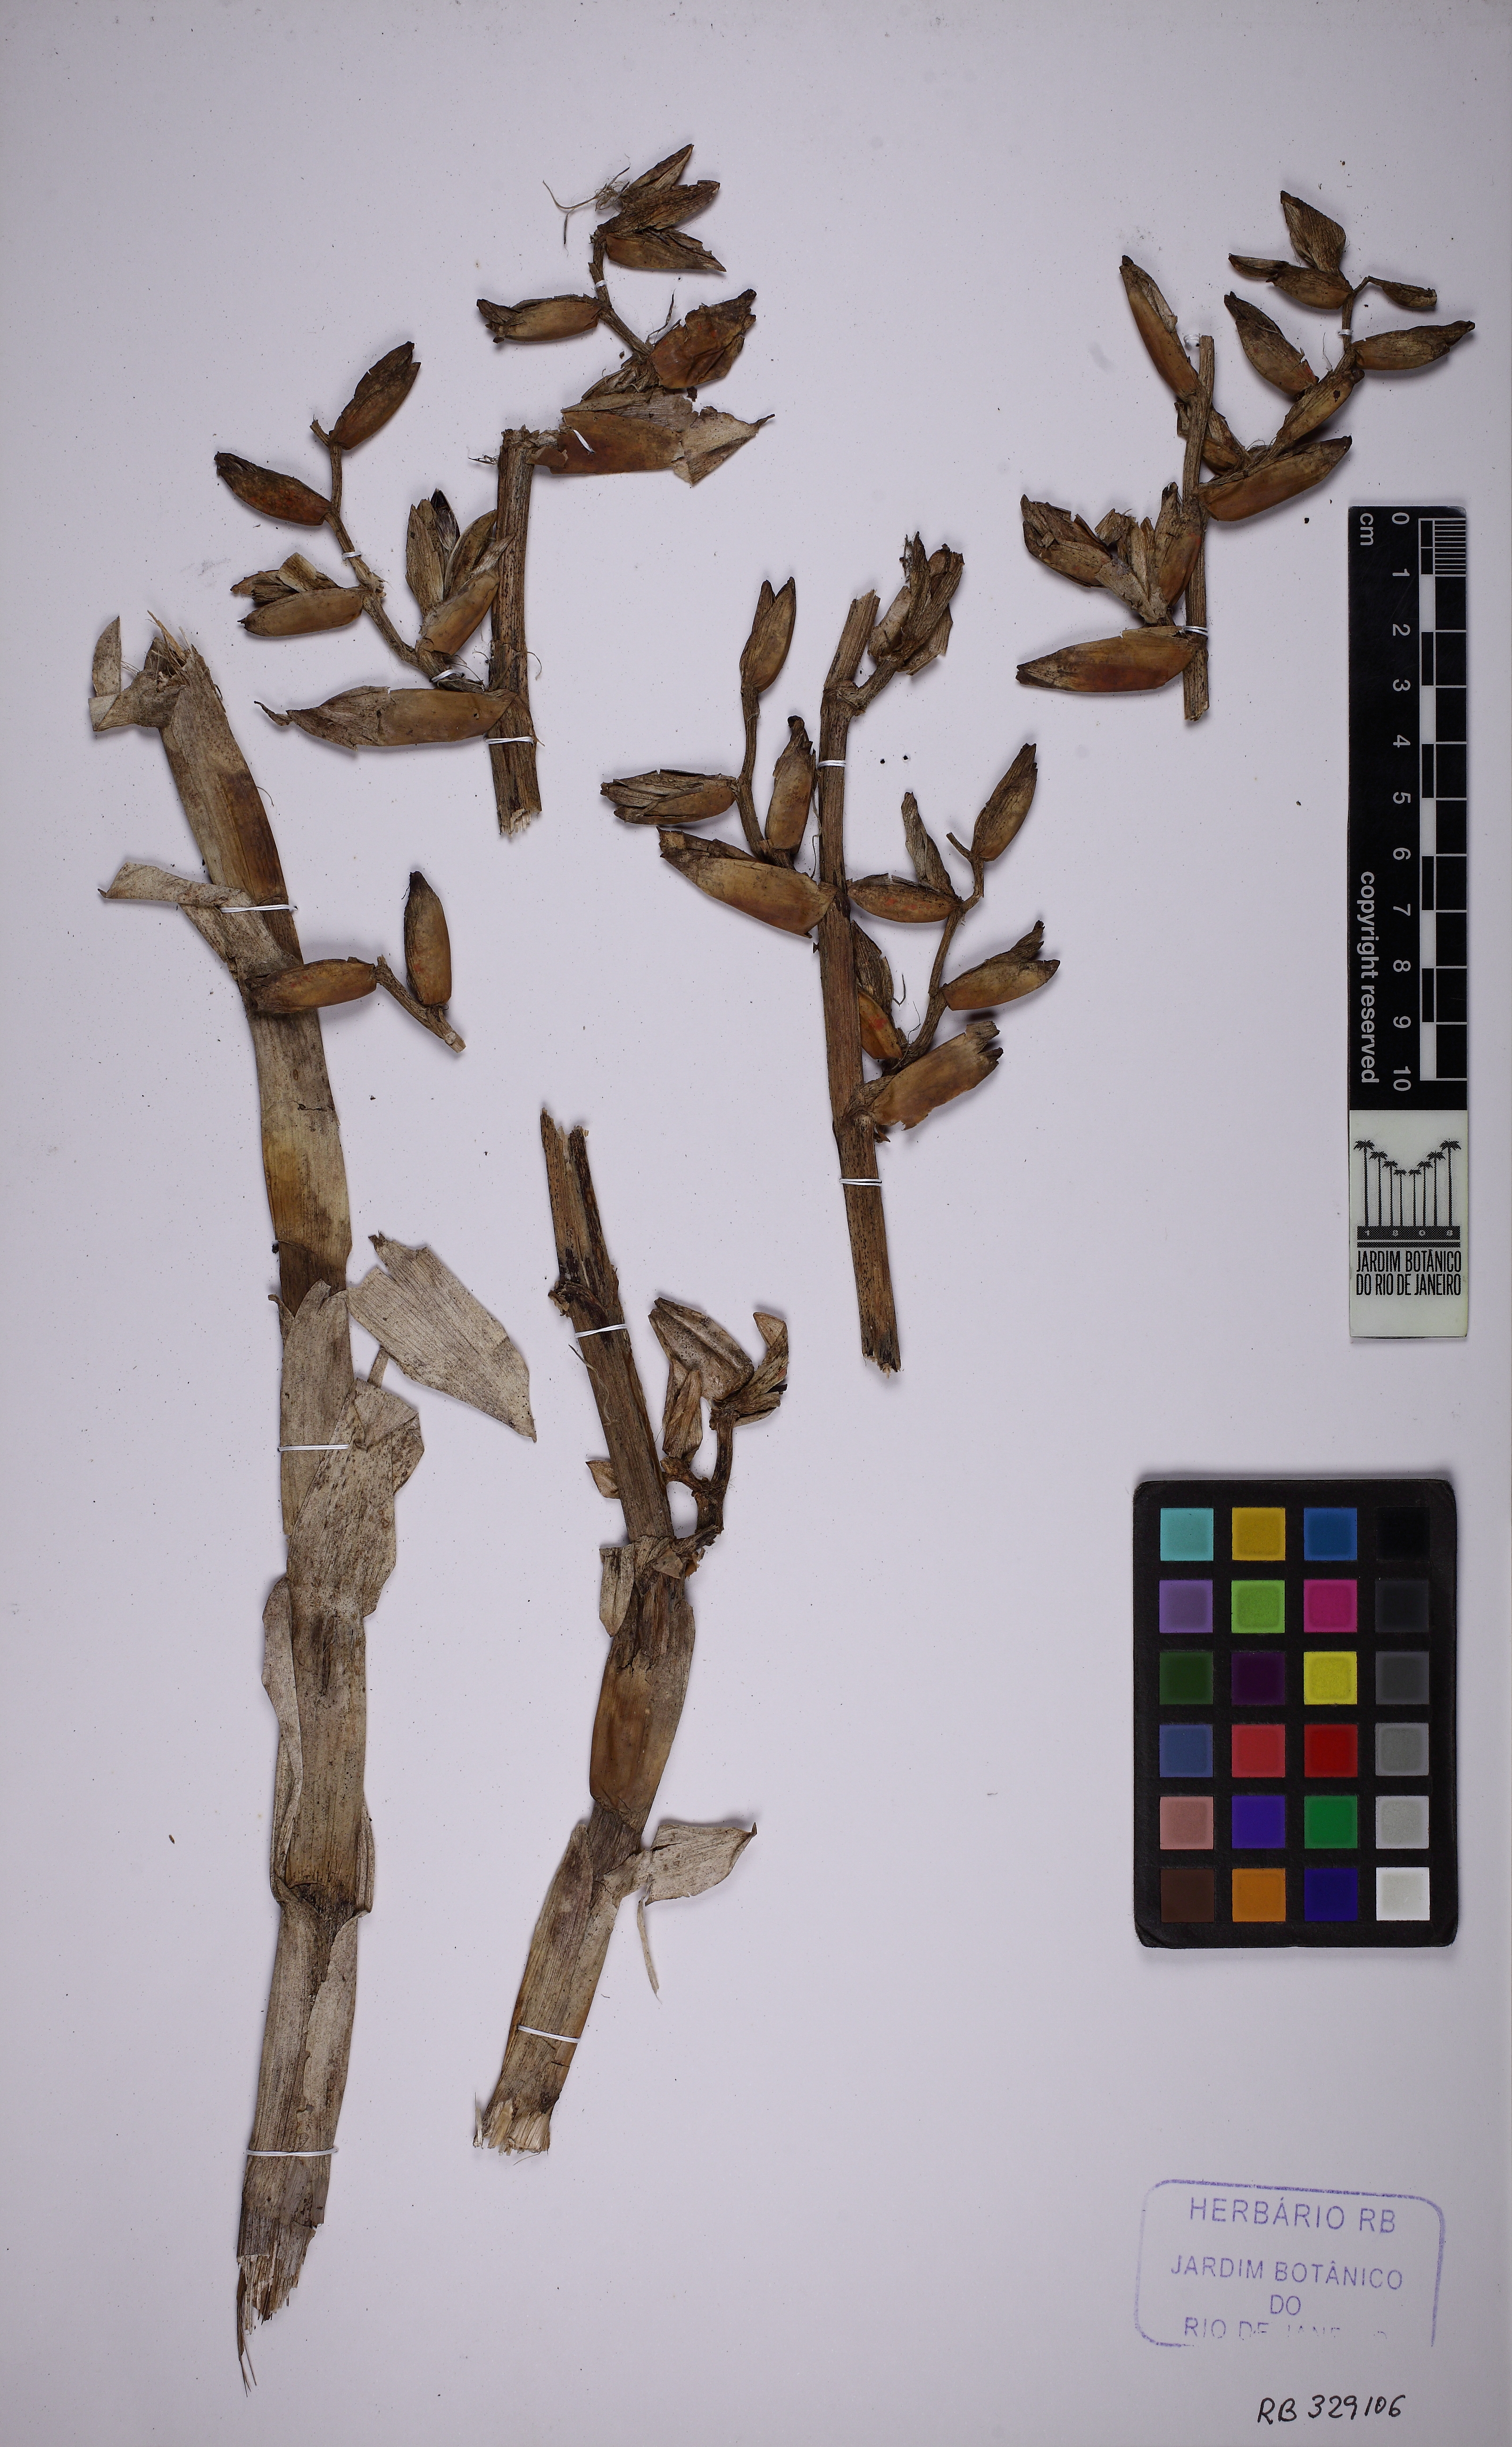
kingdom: Plantae
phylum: Tracheophyta
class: Liliopsida
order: Poales
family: Bromeliaceae
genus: Vriesea
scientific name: Vriesea friburgensis
